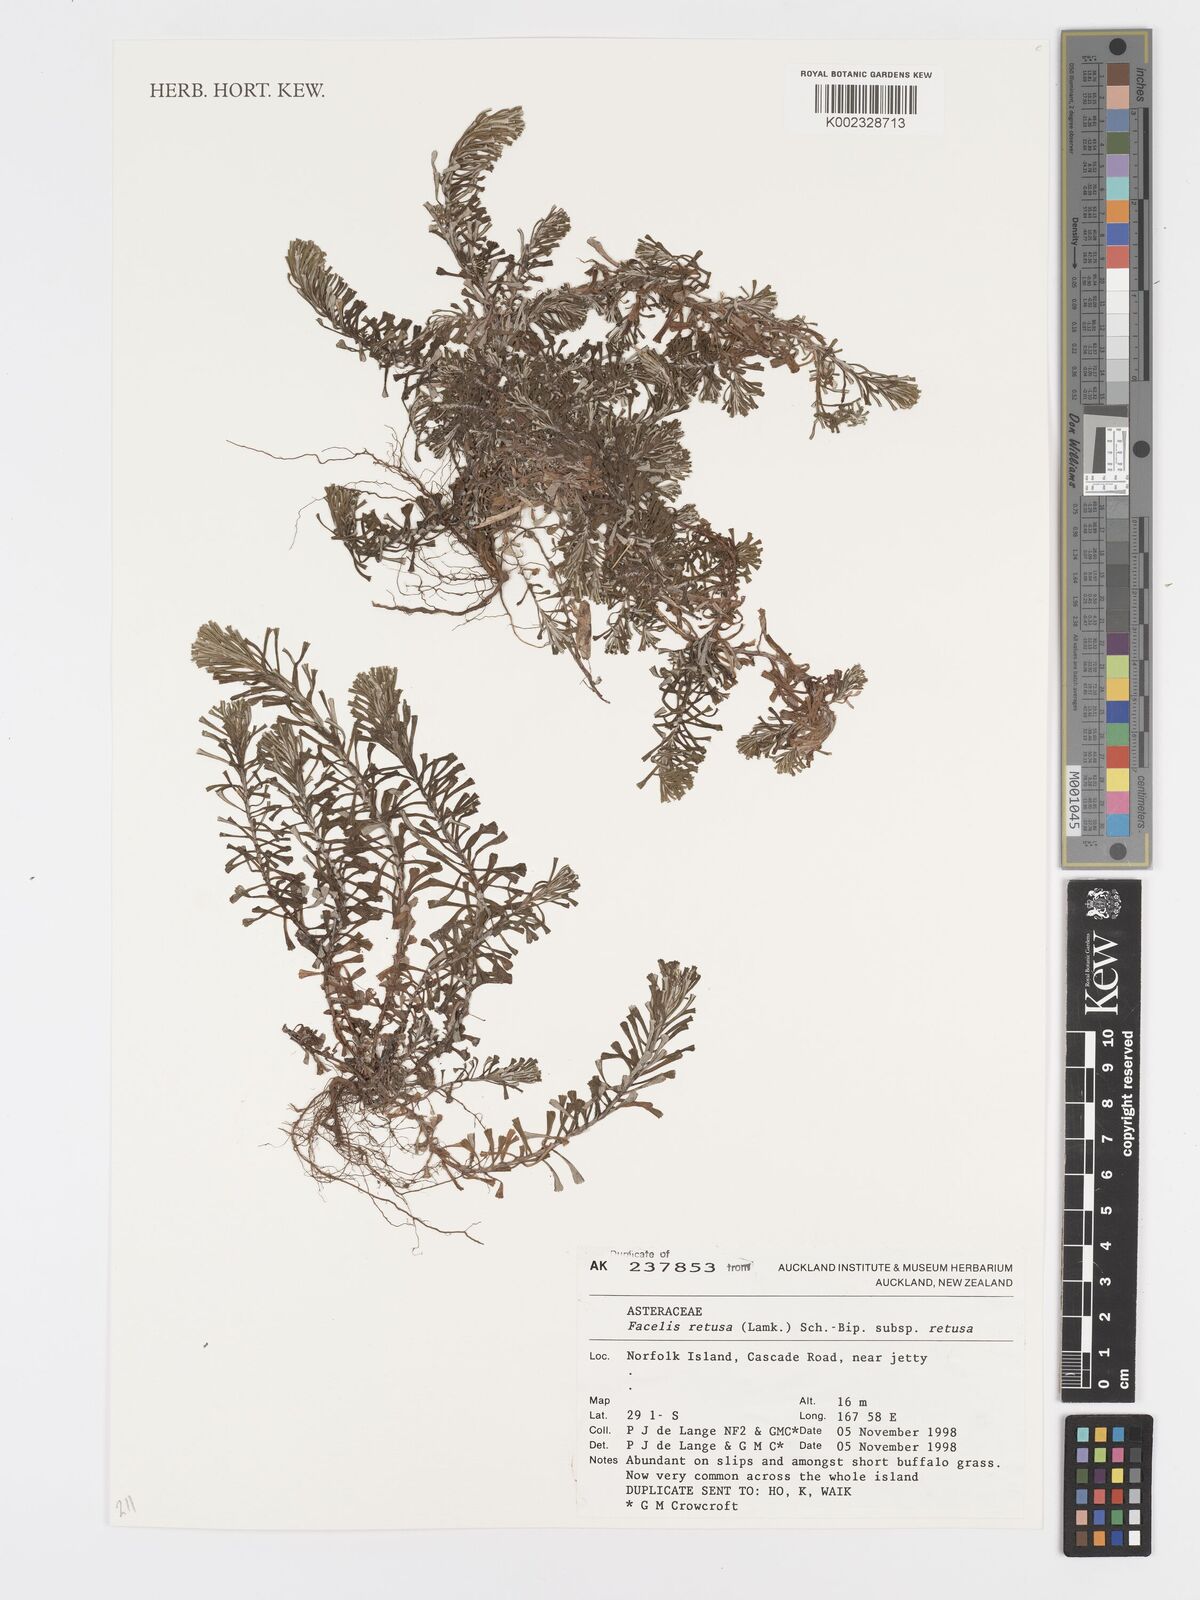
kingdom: Plantae
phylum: Tracheophyta
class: Magnoliopsida
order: Asterales
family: Asteraceae
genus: Facelis
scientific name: Facelis retusa
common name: Annual trampweed
